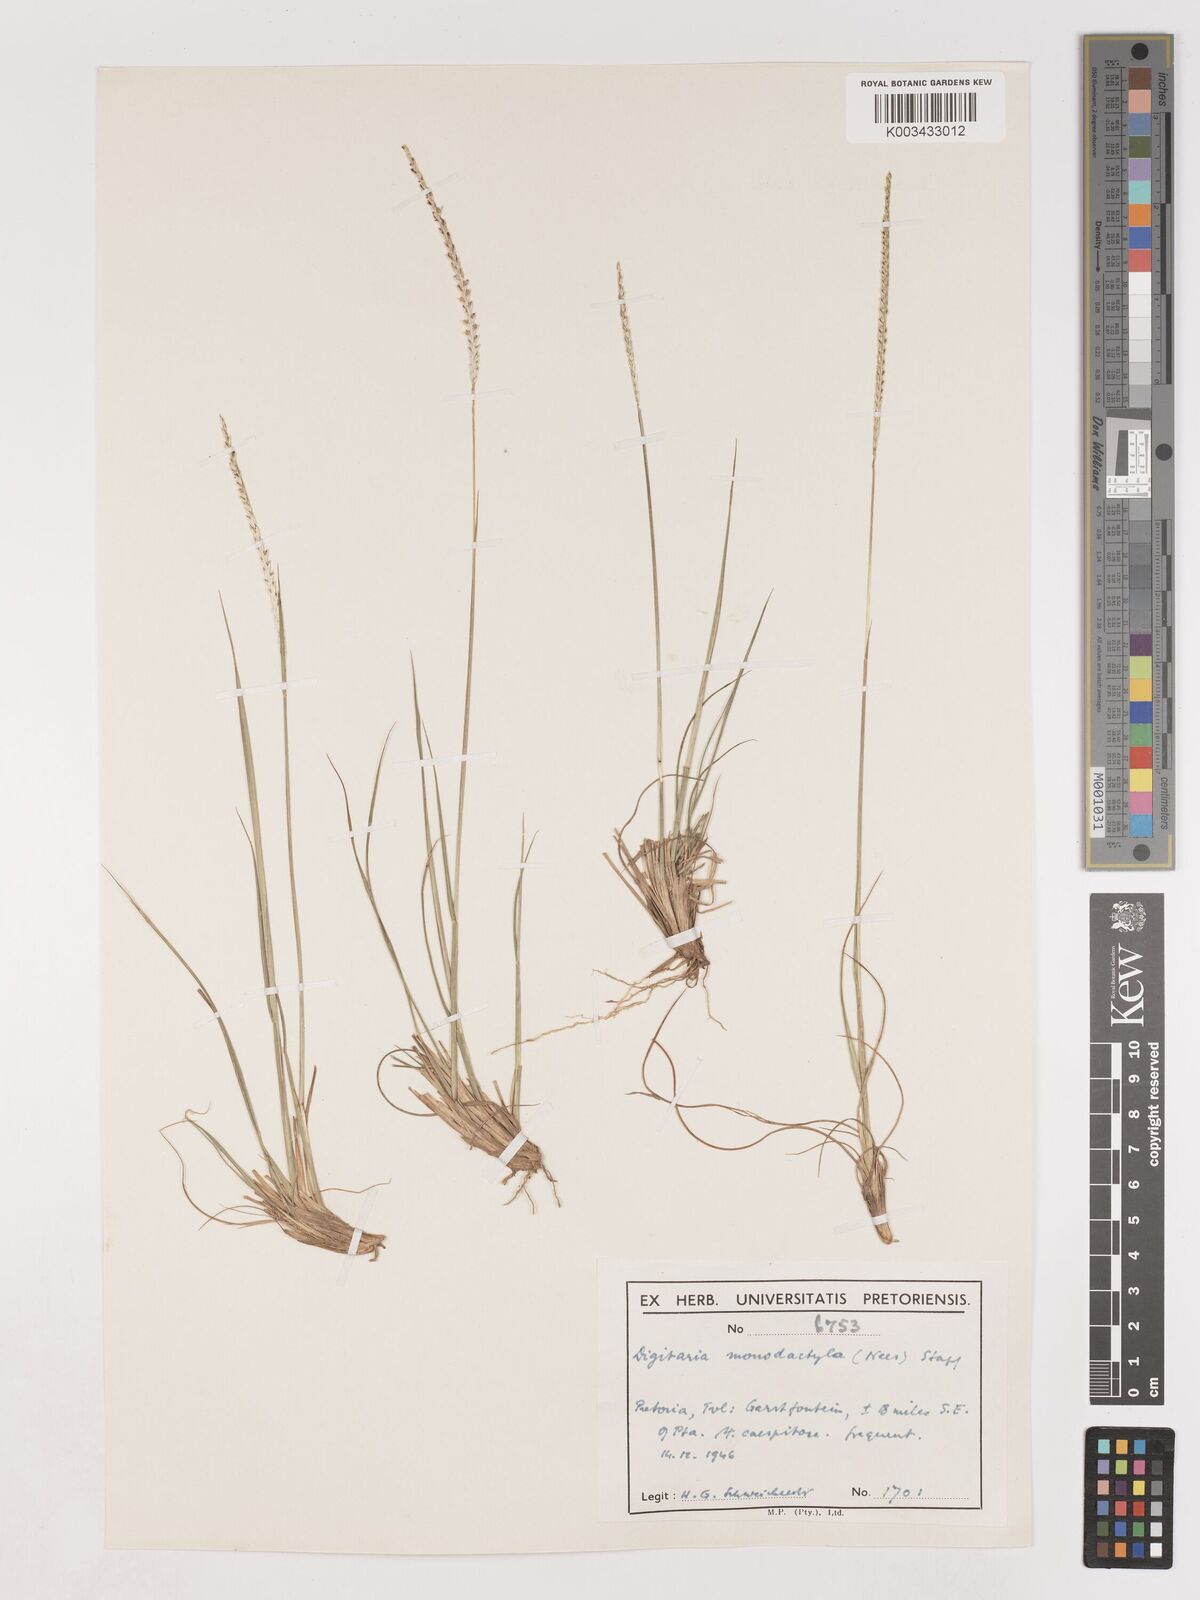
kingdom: Plantae
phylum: Tracheophyta
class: Liliopsida
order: Poales
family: Poaceae
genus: Digitaria
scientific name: Digitaria monodactyla
